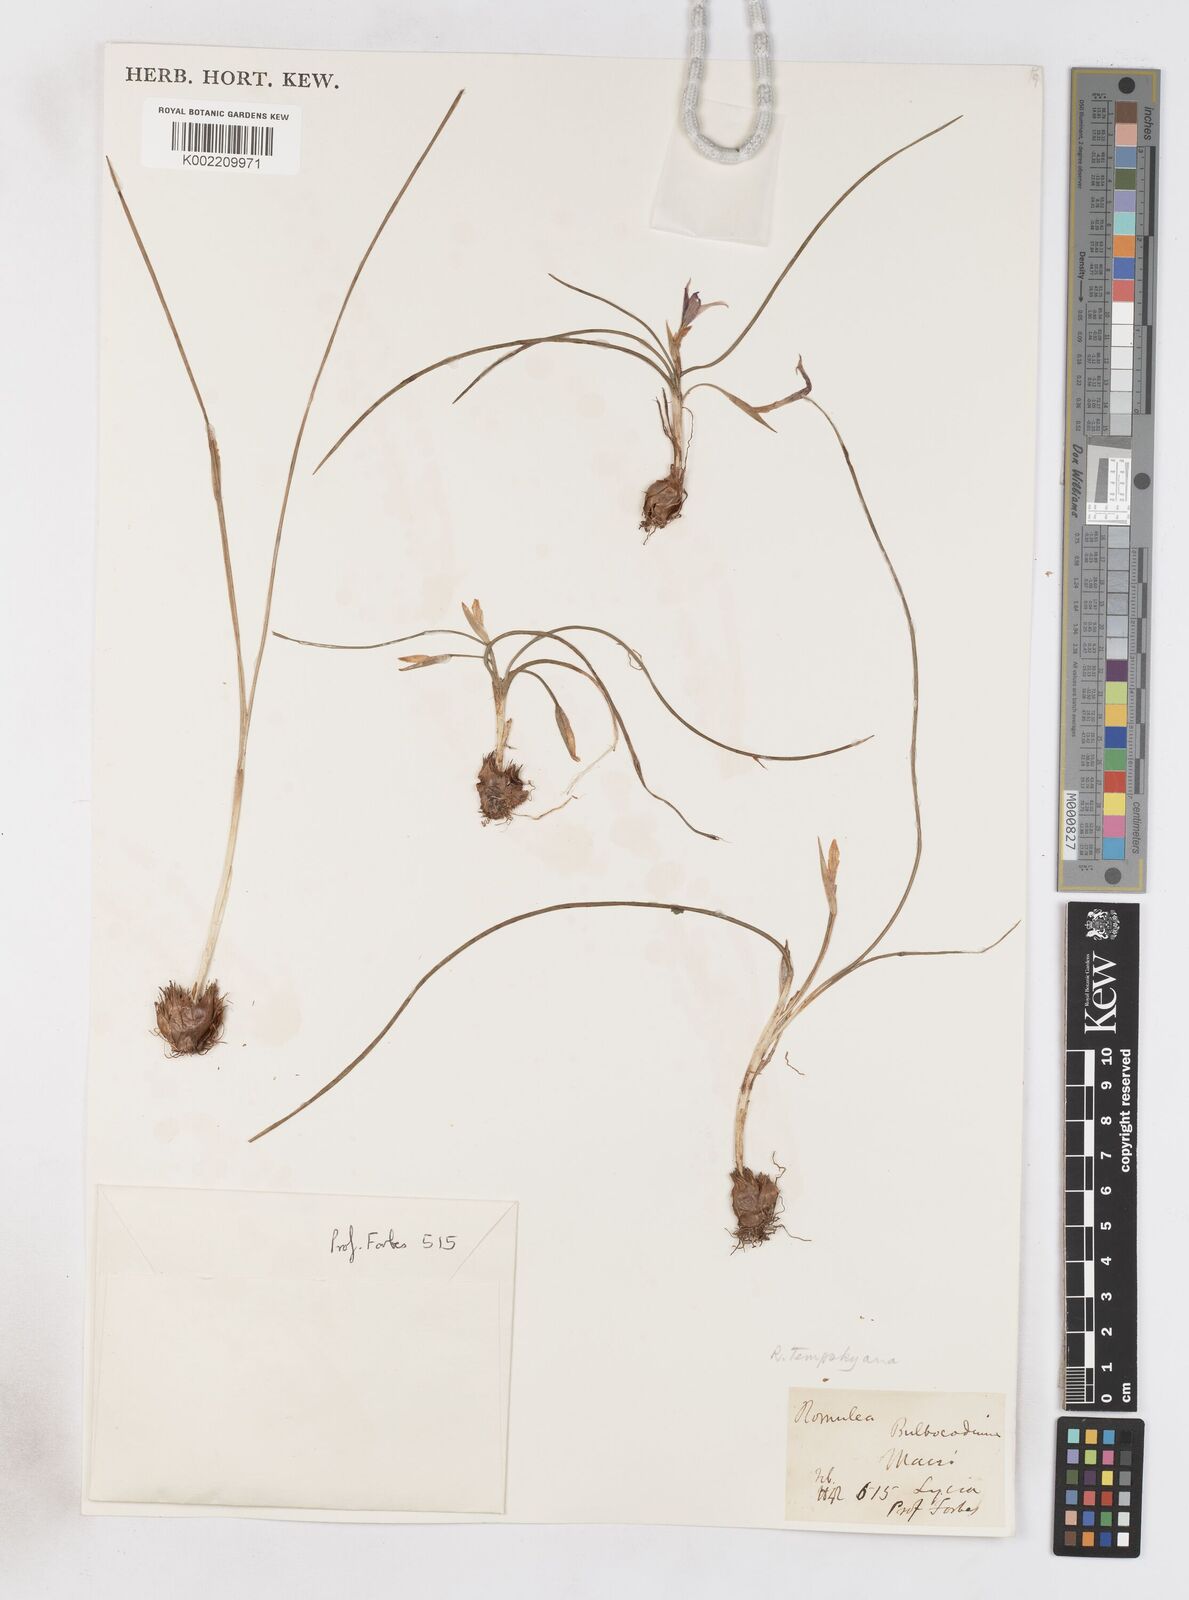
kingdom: Plantae
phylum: Tracheophyta
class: Liliopsida
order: Asparagales
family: Iridaceae
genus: Romulea
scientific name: Romulea tempskyana
